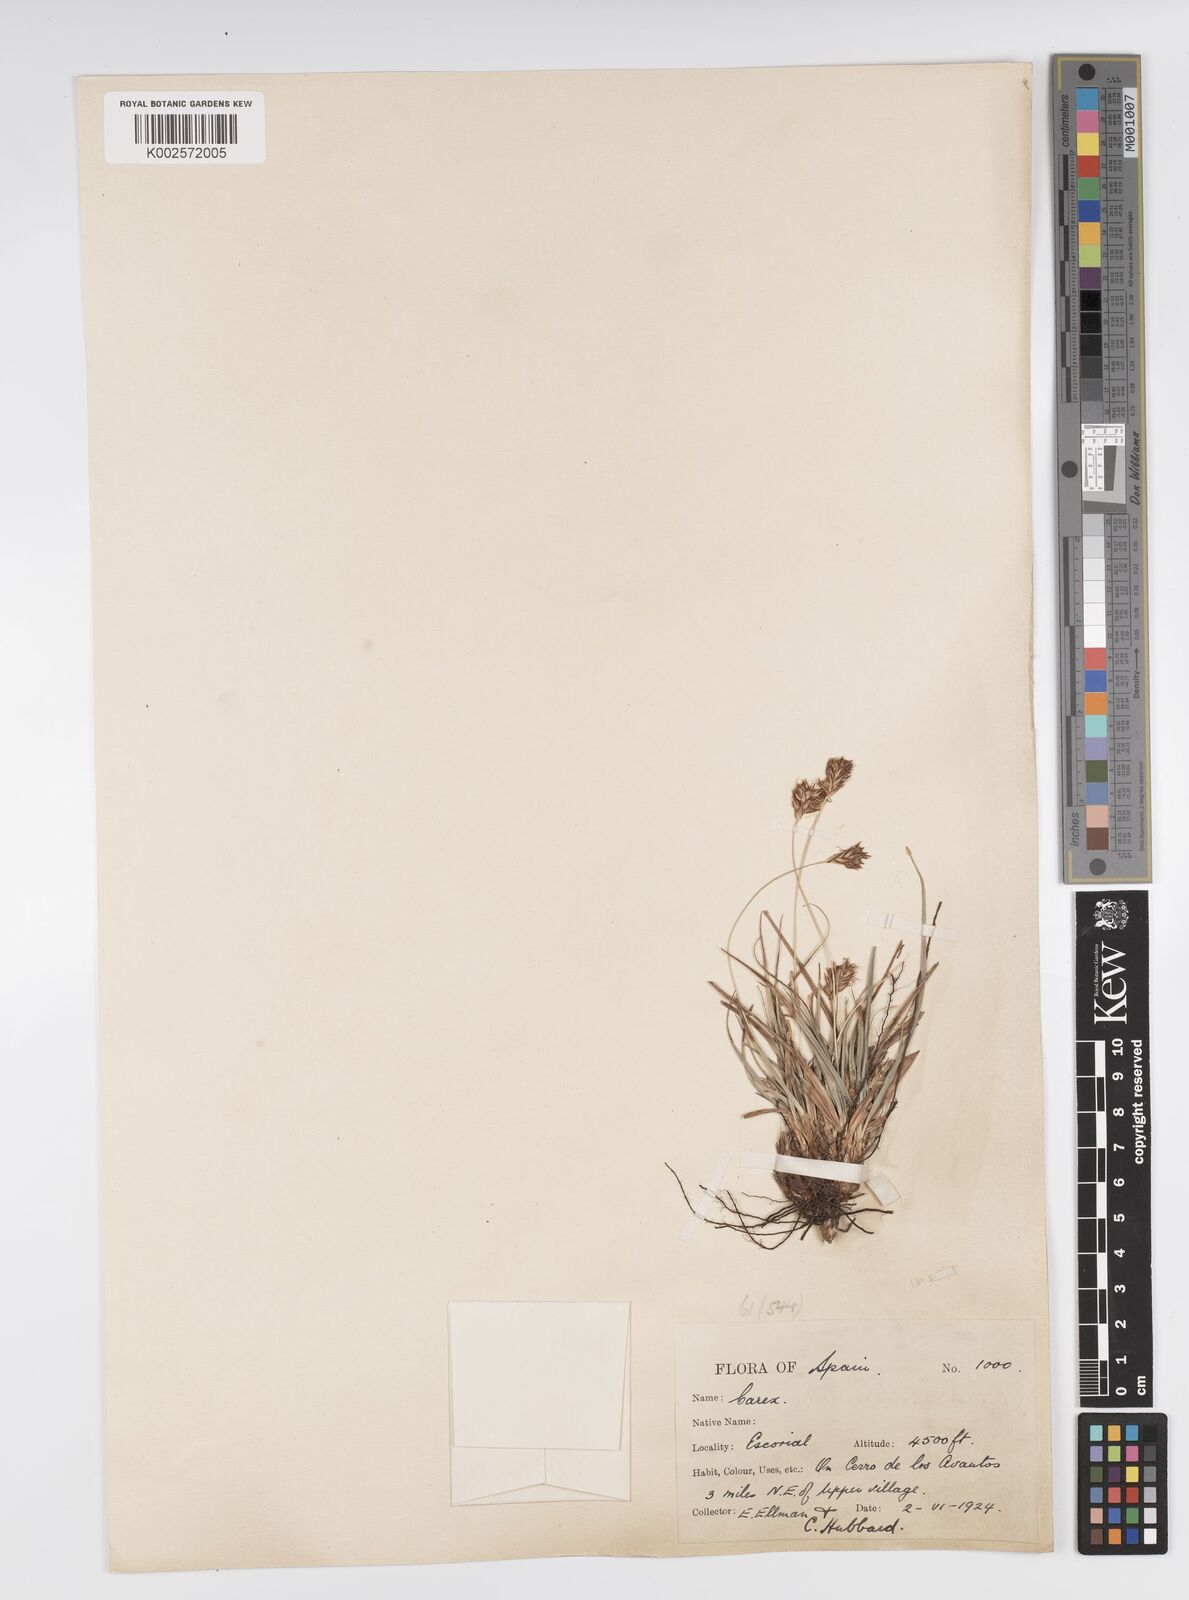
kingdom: Plantae
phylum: Tracheophyta
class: Liliopsida
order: Poales
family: Cyperaceae
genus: Carex
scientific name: Carex halleriana
